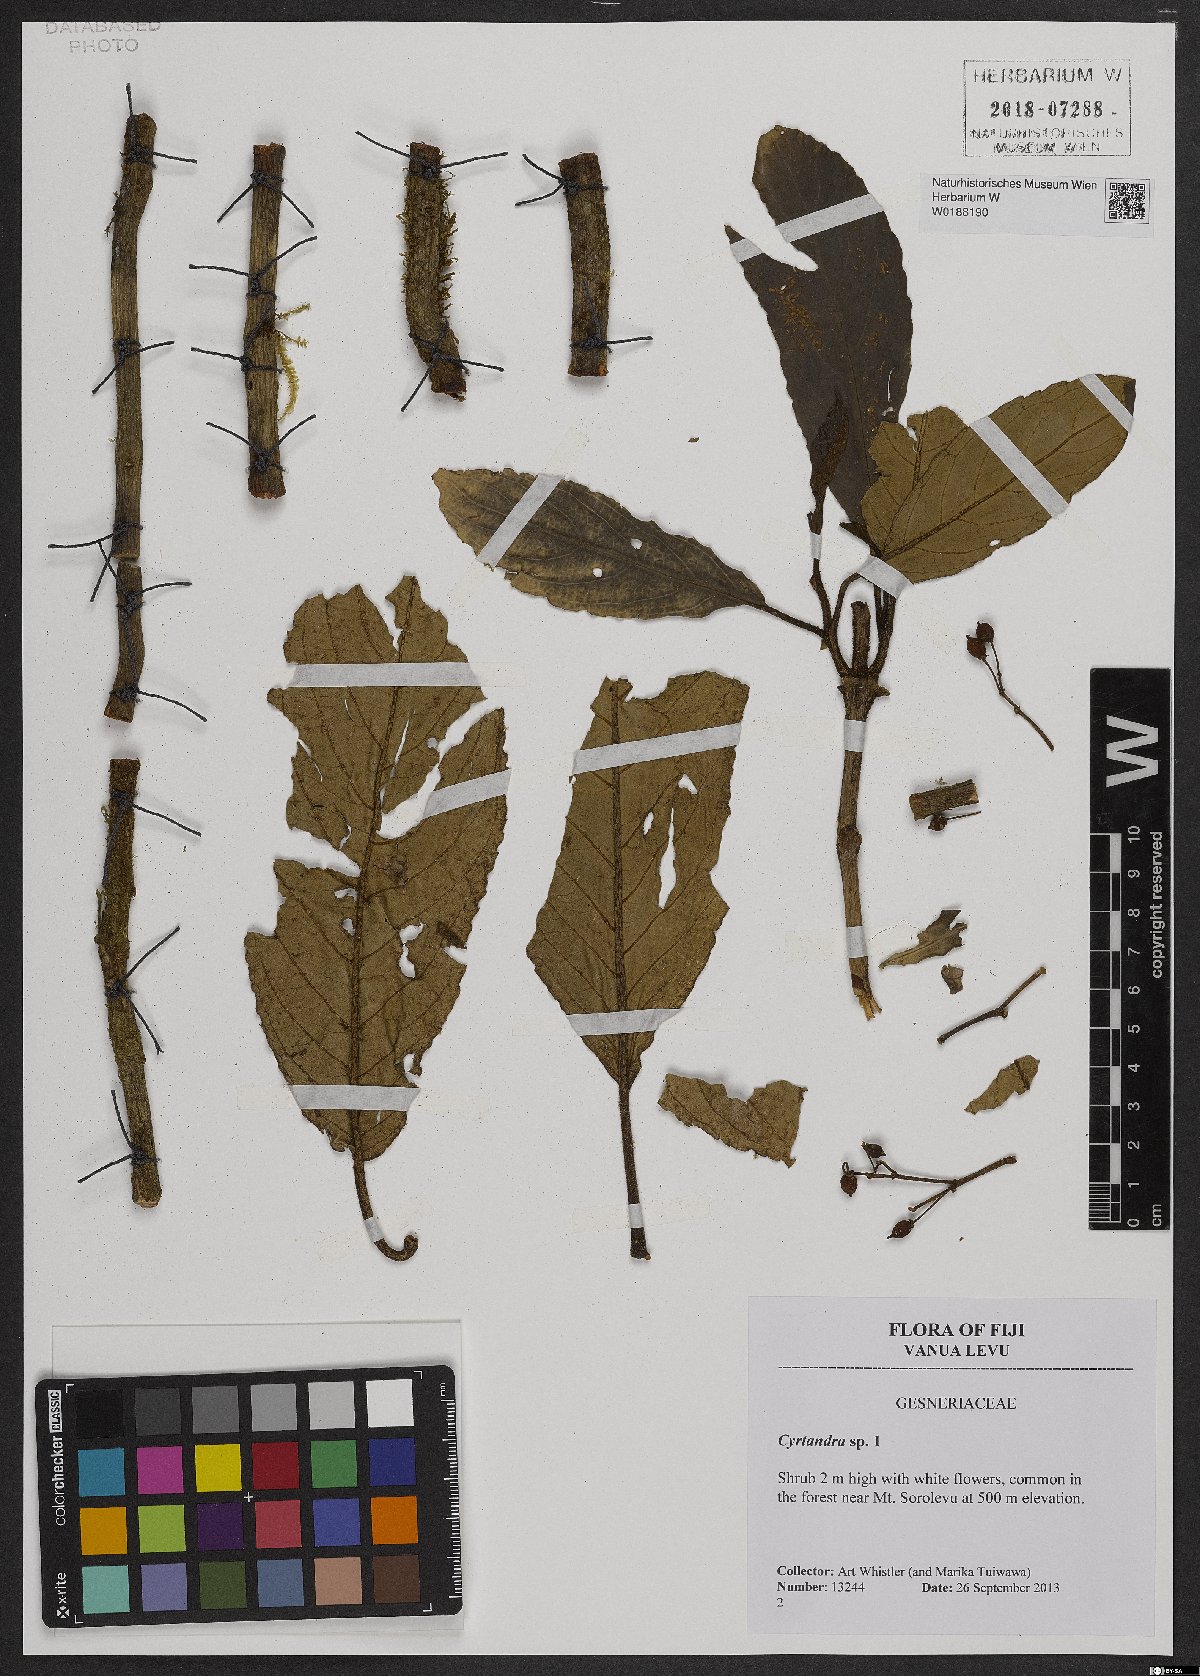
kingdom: Plantae
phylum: Tracheophyta
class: Magnoliopsida
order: Lamiales
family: Gesneriaceae
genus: Cyrtandra
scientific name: Cyrtandra
